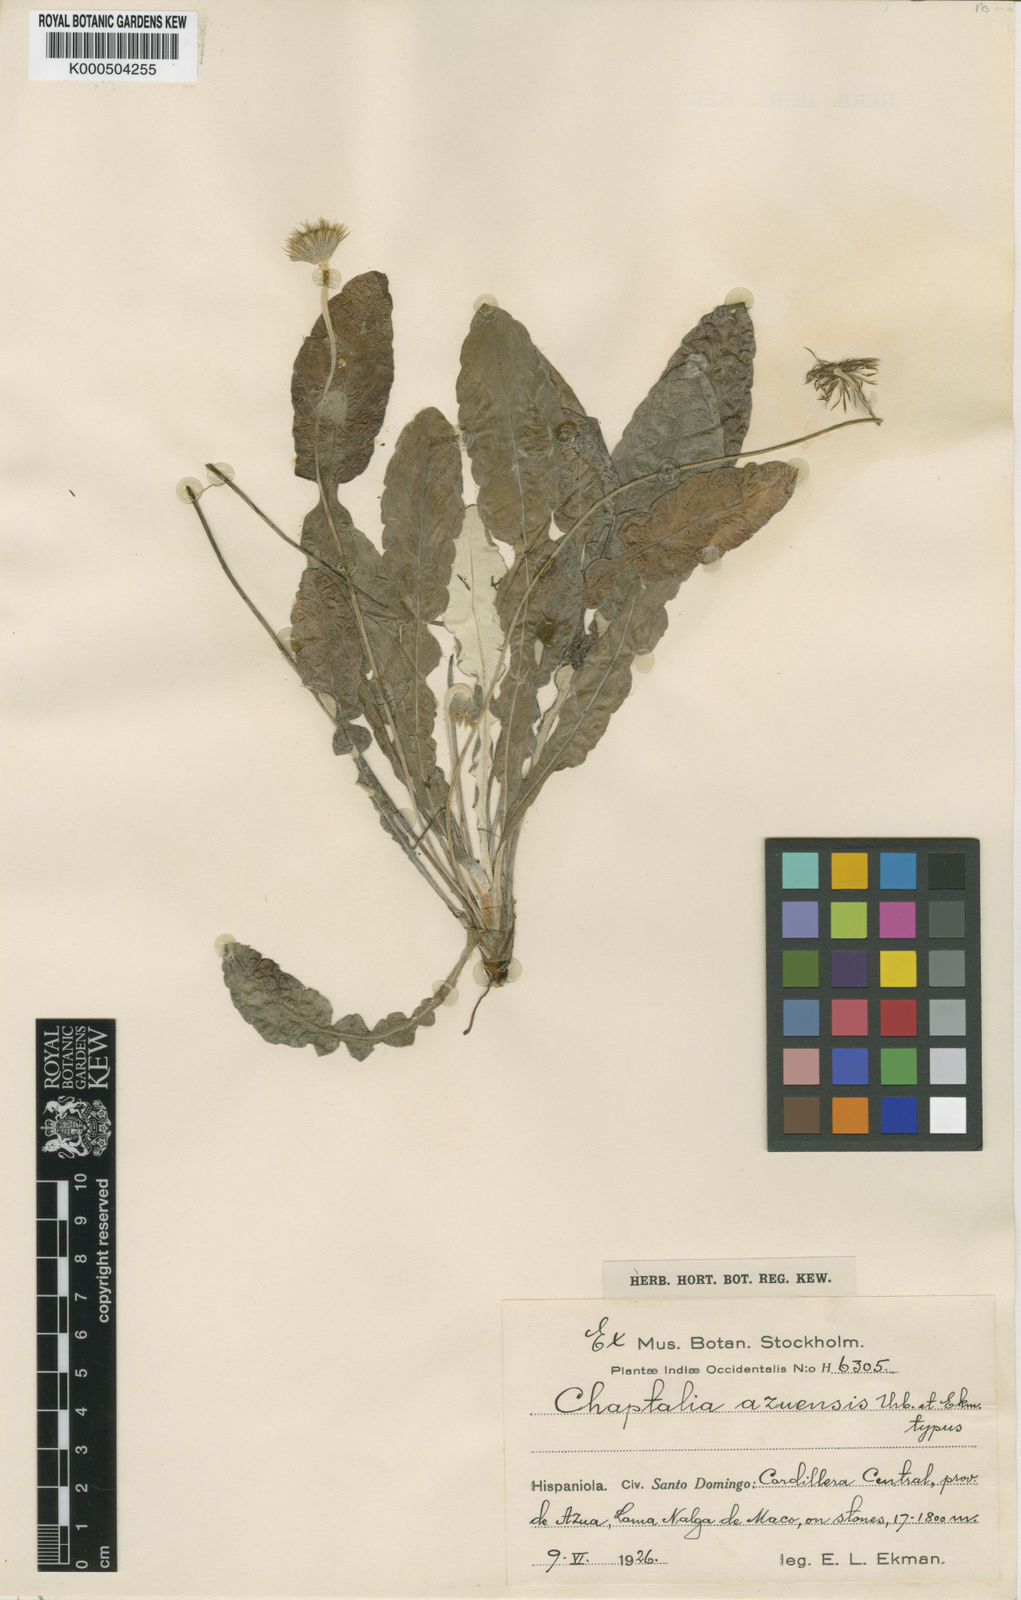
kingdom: Plantae
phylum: Tracheophyta
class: Magnoliopsida
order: Asterales
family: Asteraceae
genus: Chaptalia
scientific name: Chaptalia tomentosa
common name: Woolly sunbonnet
